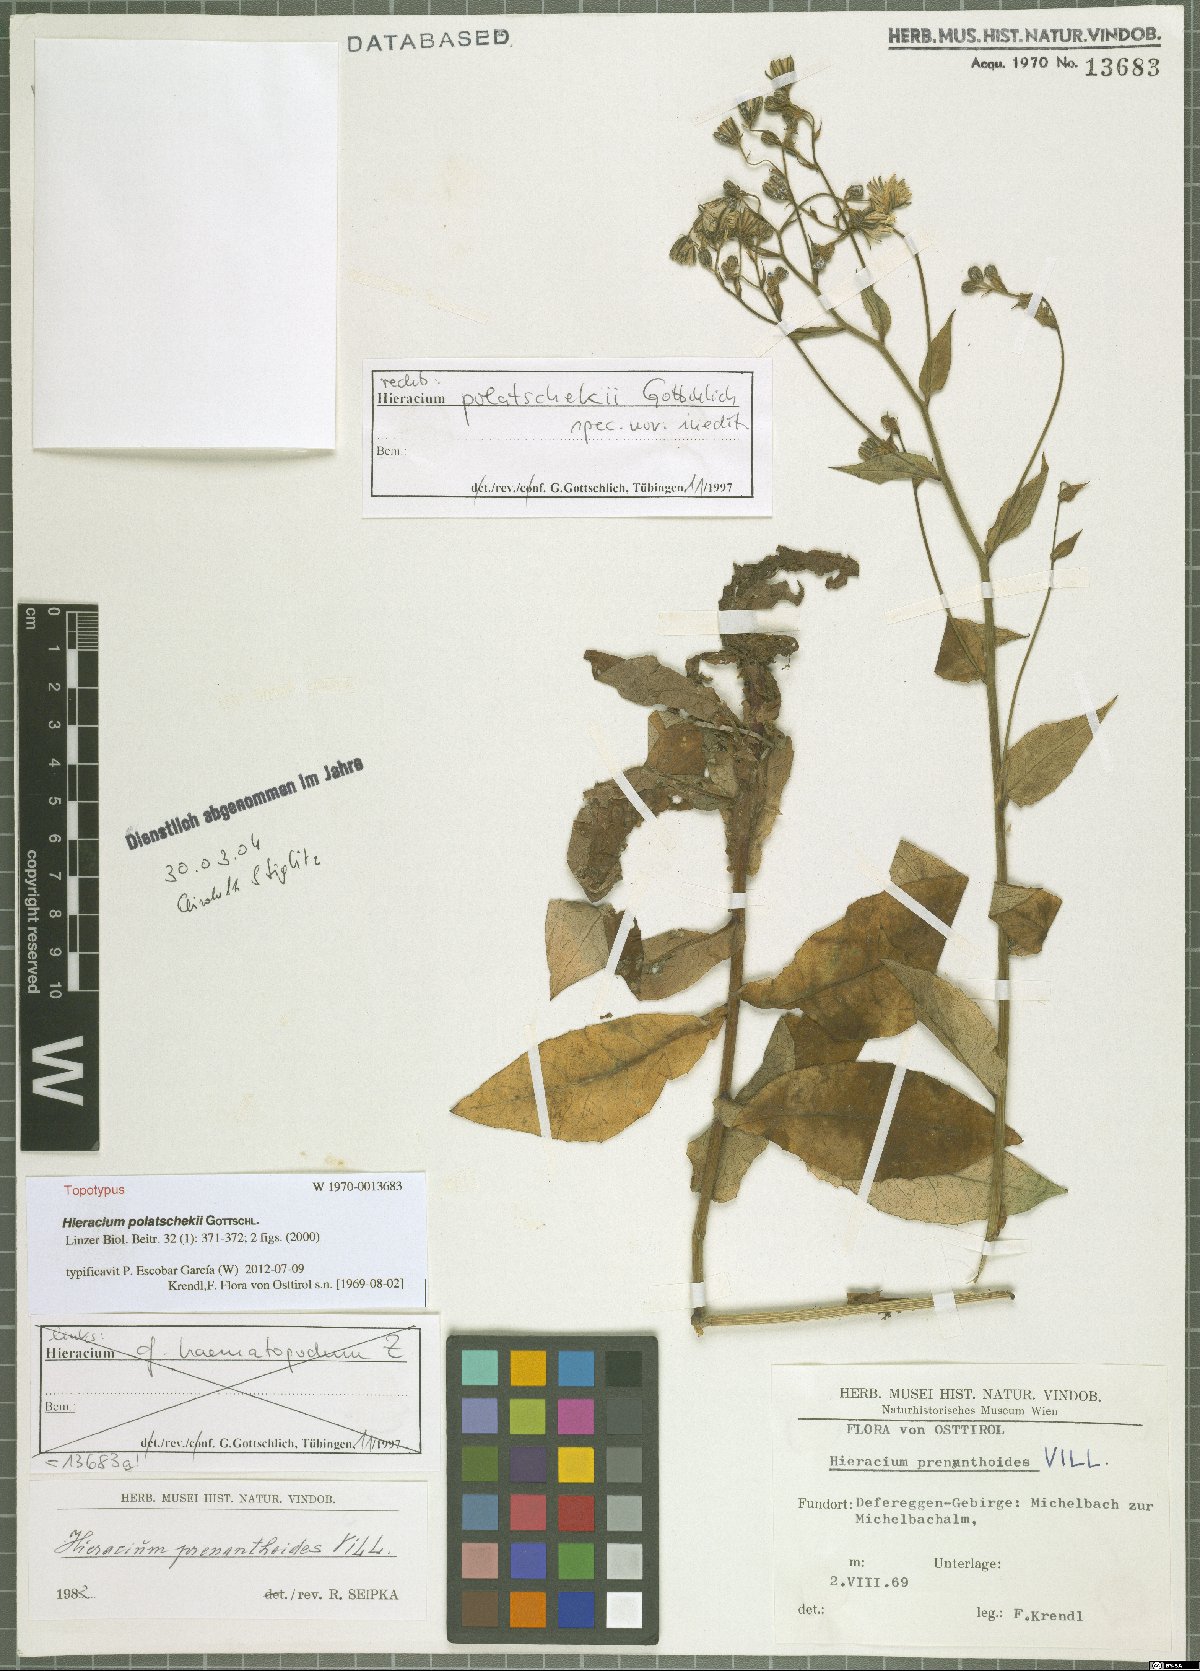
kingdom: Plantae
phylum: Tracheophyta
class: Magnoliopsida
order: Asterales
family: Asteraceae
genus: Hieracium
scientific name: Hieracium polatschekii
